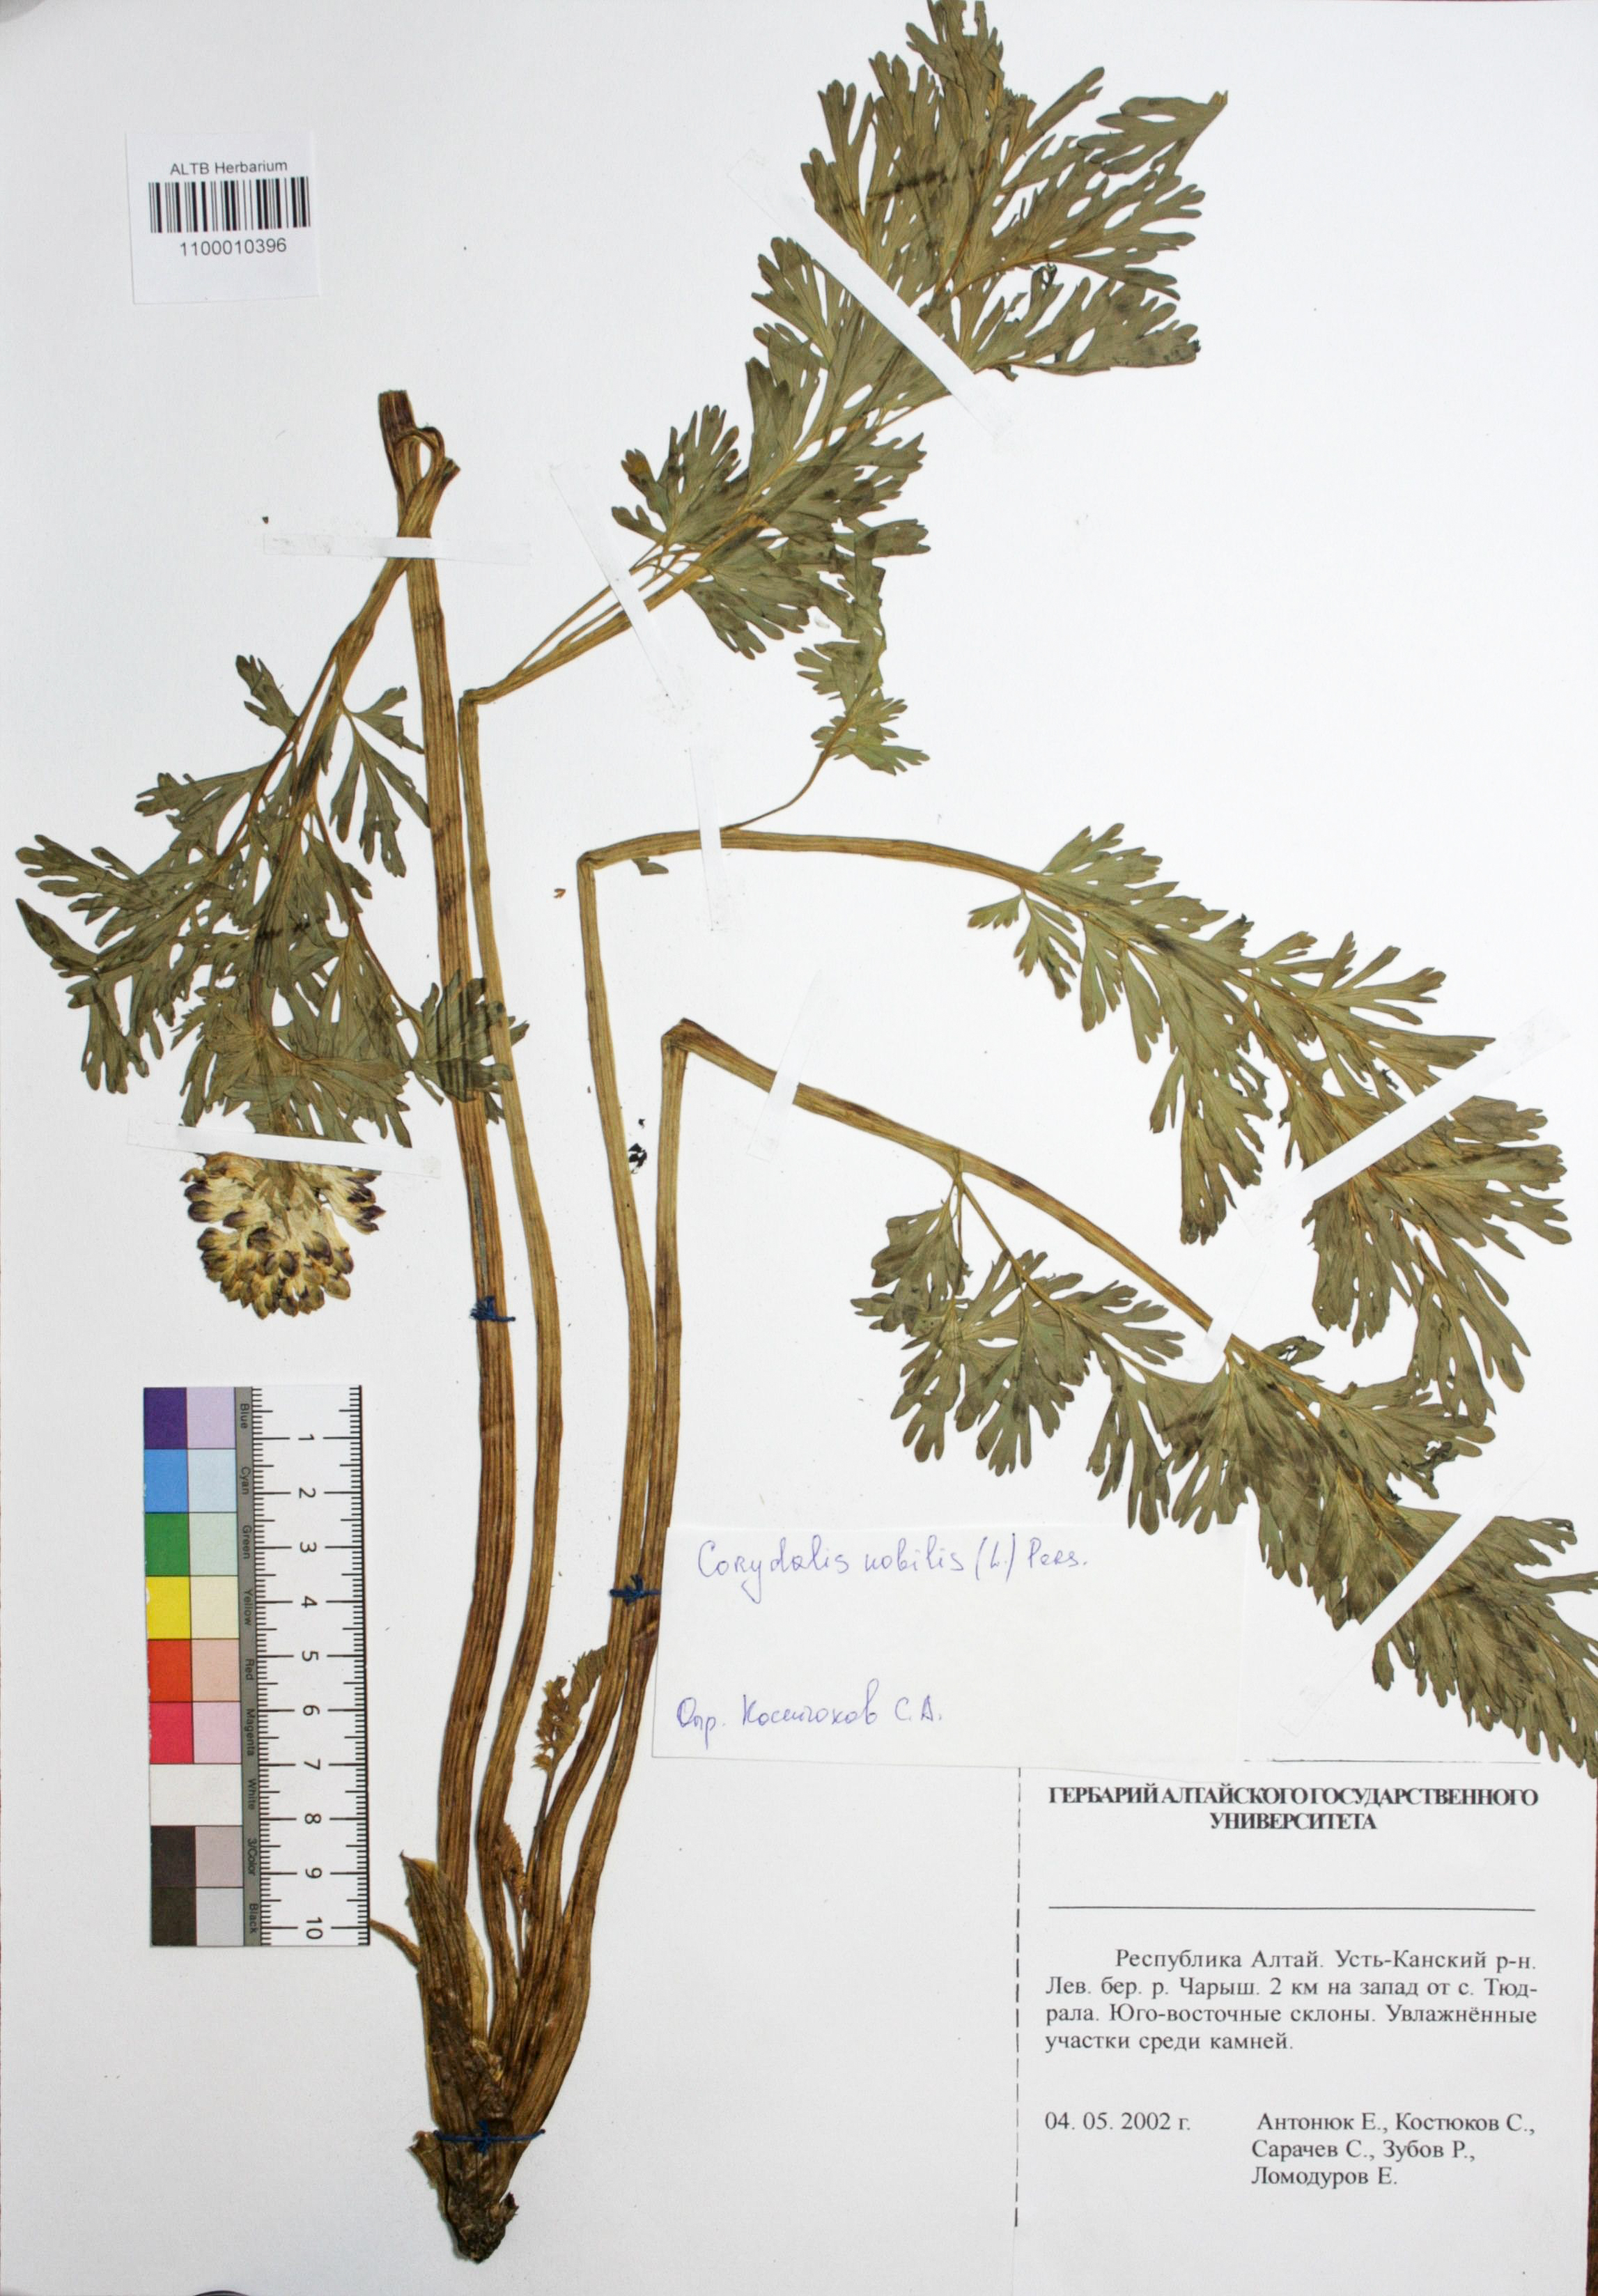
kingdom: Plantae
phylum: Tracheophyta
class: Magnoliopsida
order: Ranunculales
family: Papaveraceae
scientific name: Papaveraceae
